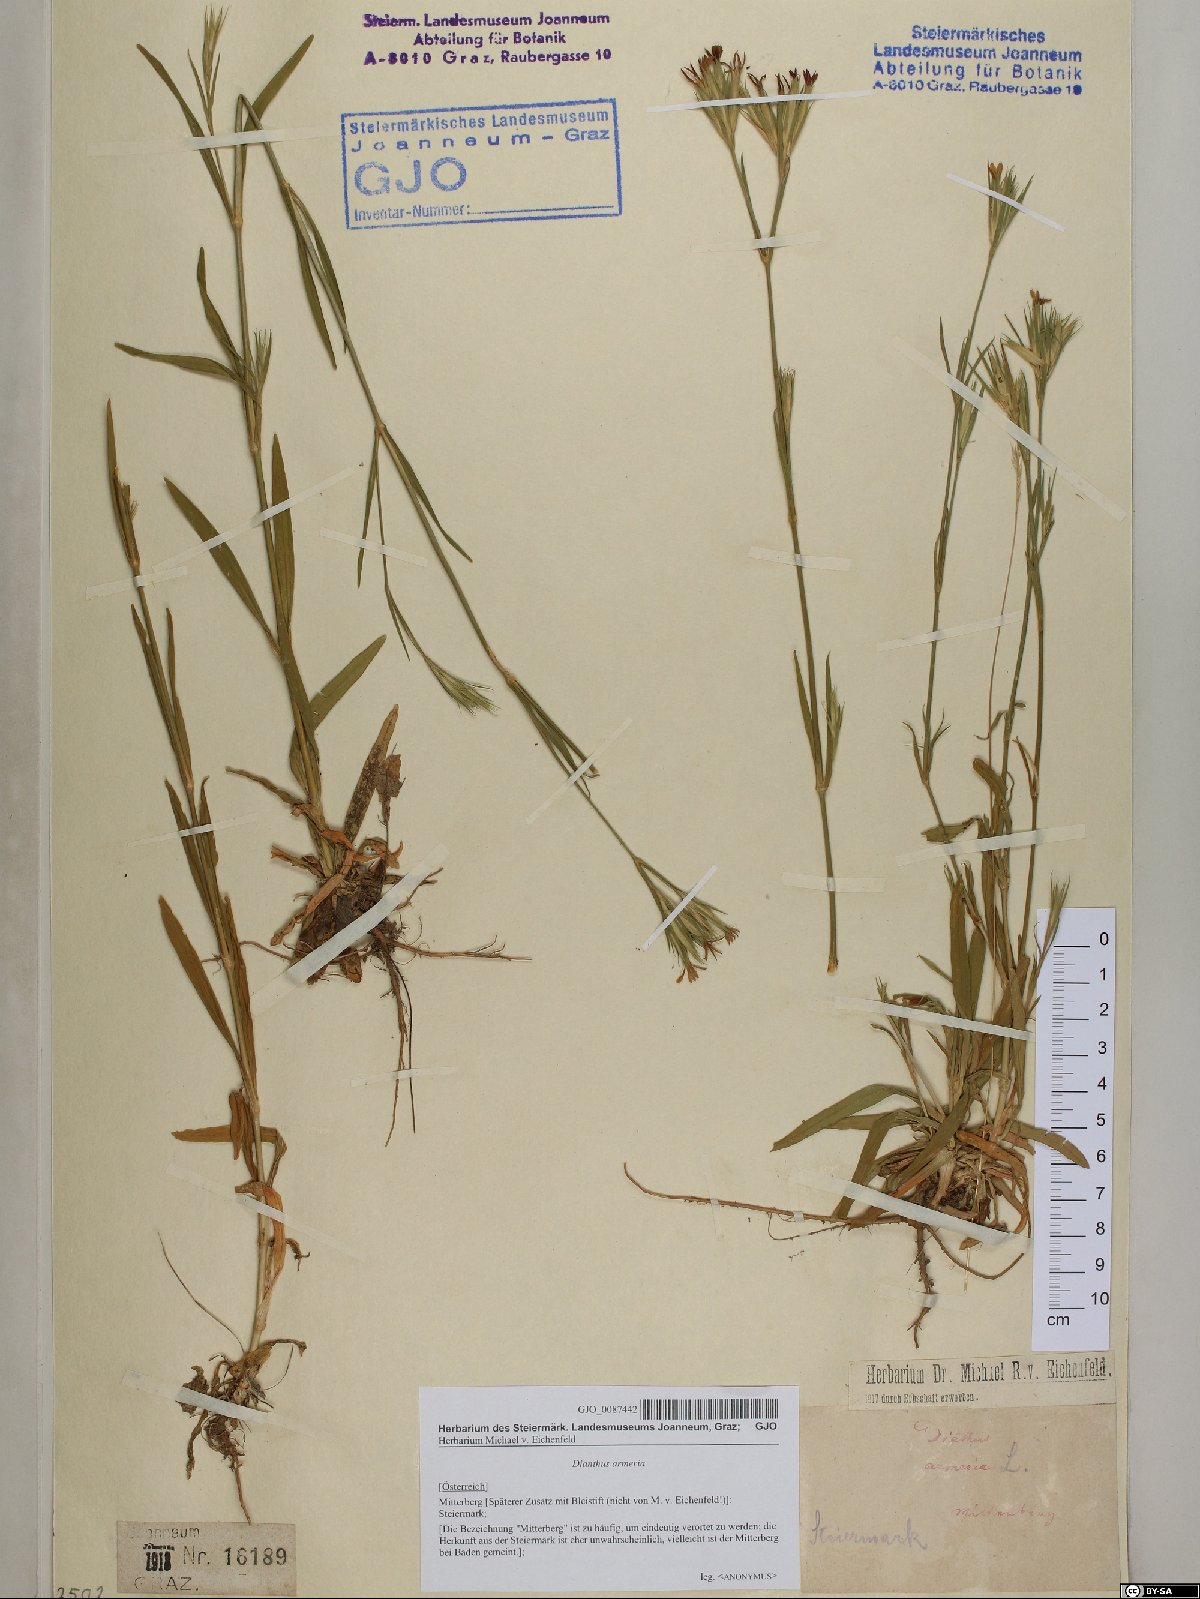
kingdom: Plantae
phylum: Tracheophyta
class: Magnoliopsida
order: Caryophyllales
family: Caryophyllaceae
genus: Dianthus
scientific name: Dianthus armeria
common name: Deptford pink
